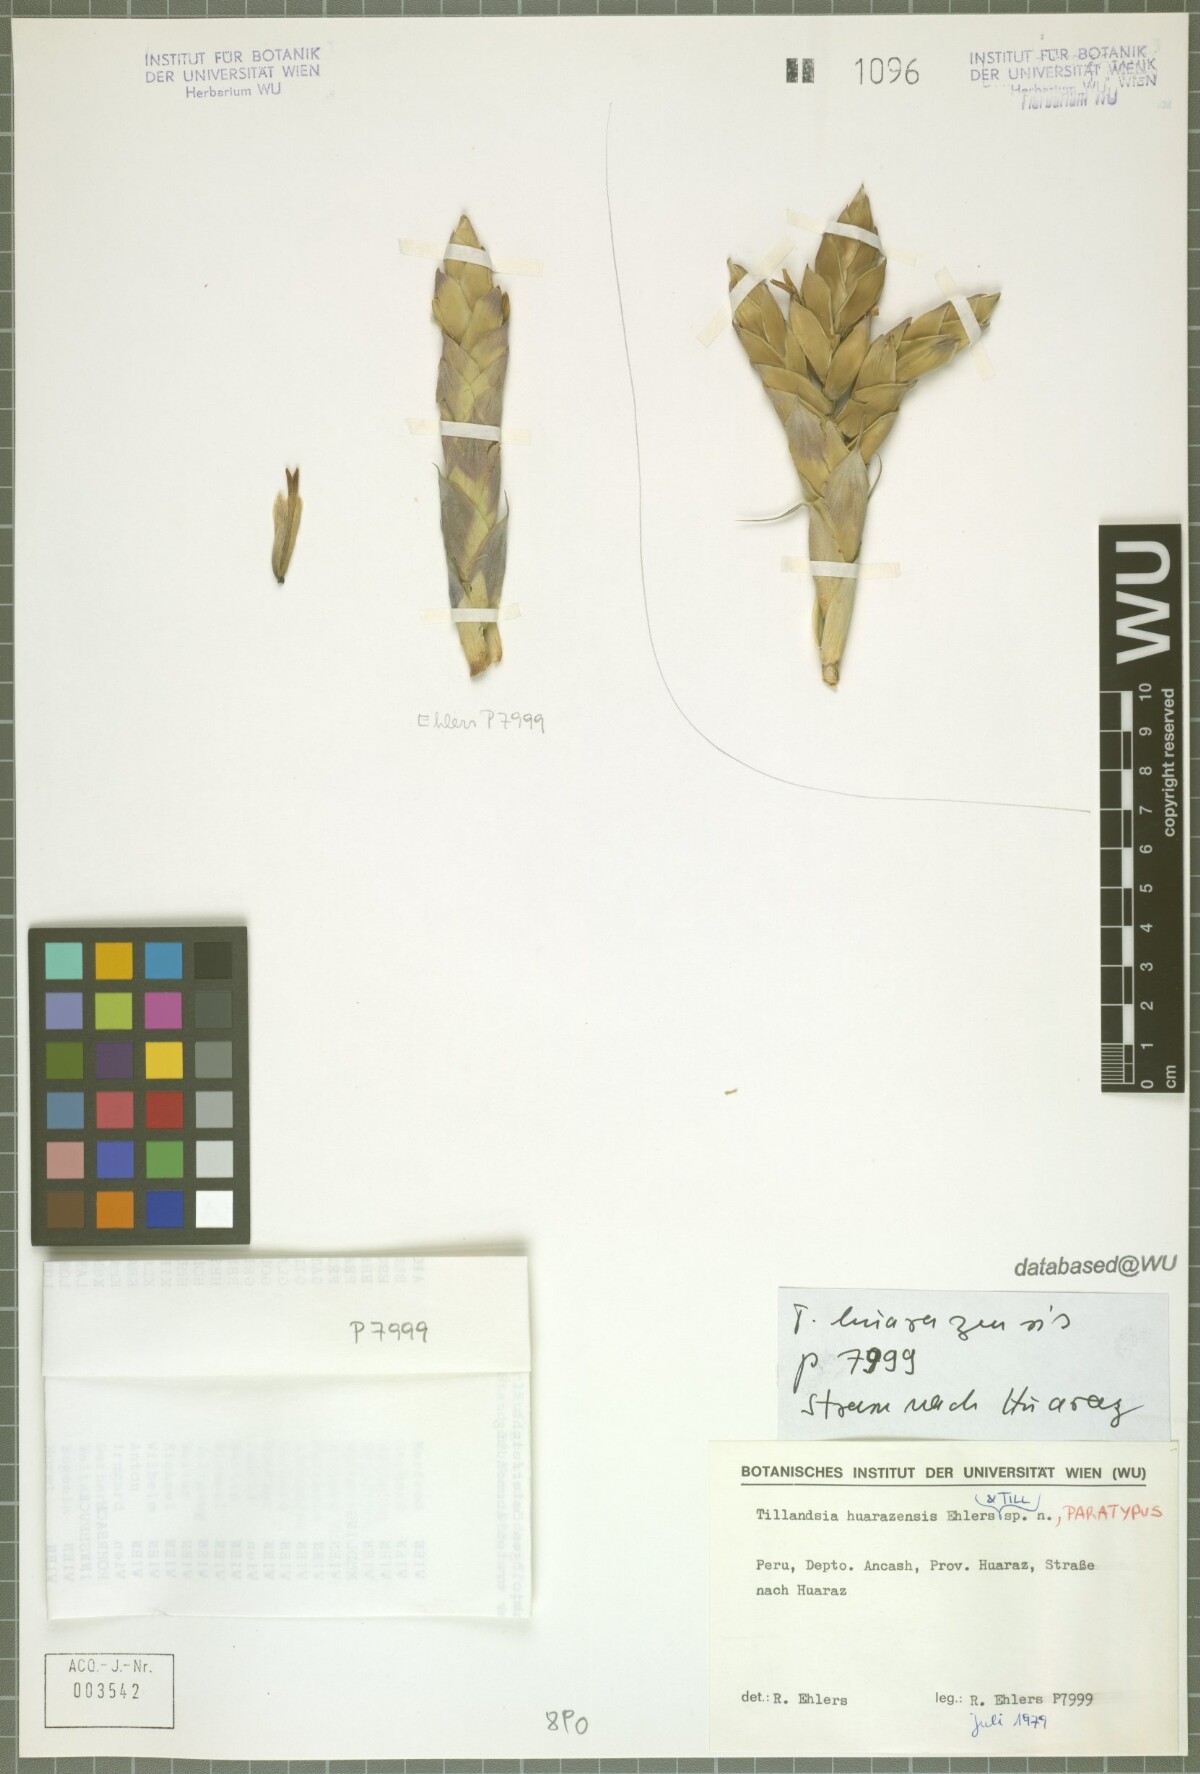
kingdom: Plantae
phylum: Tracheophyta
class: Liliopsida
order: Poales
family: Bromeliaceae
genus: Tillandsia
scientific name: Tillandsia huarazensis
